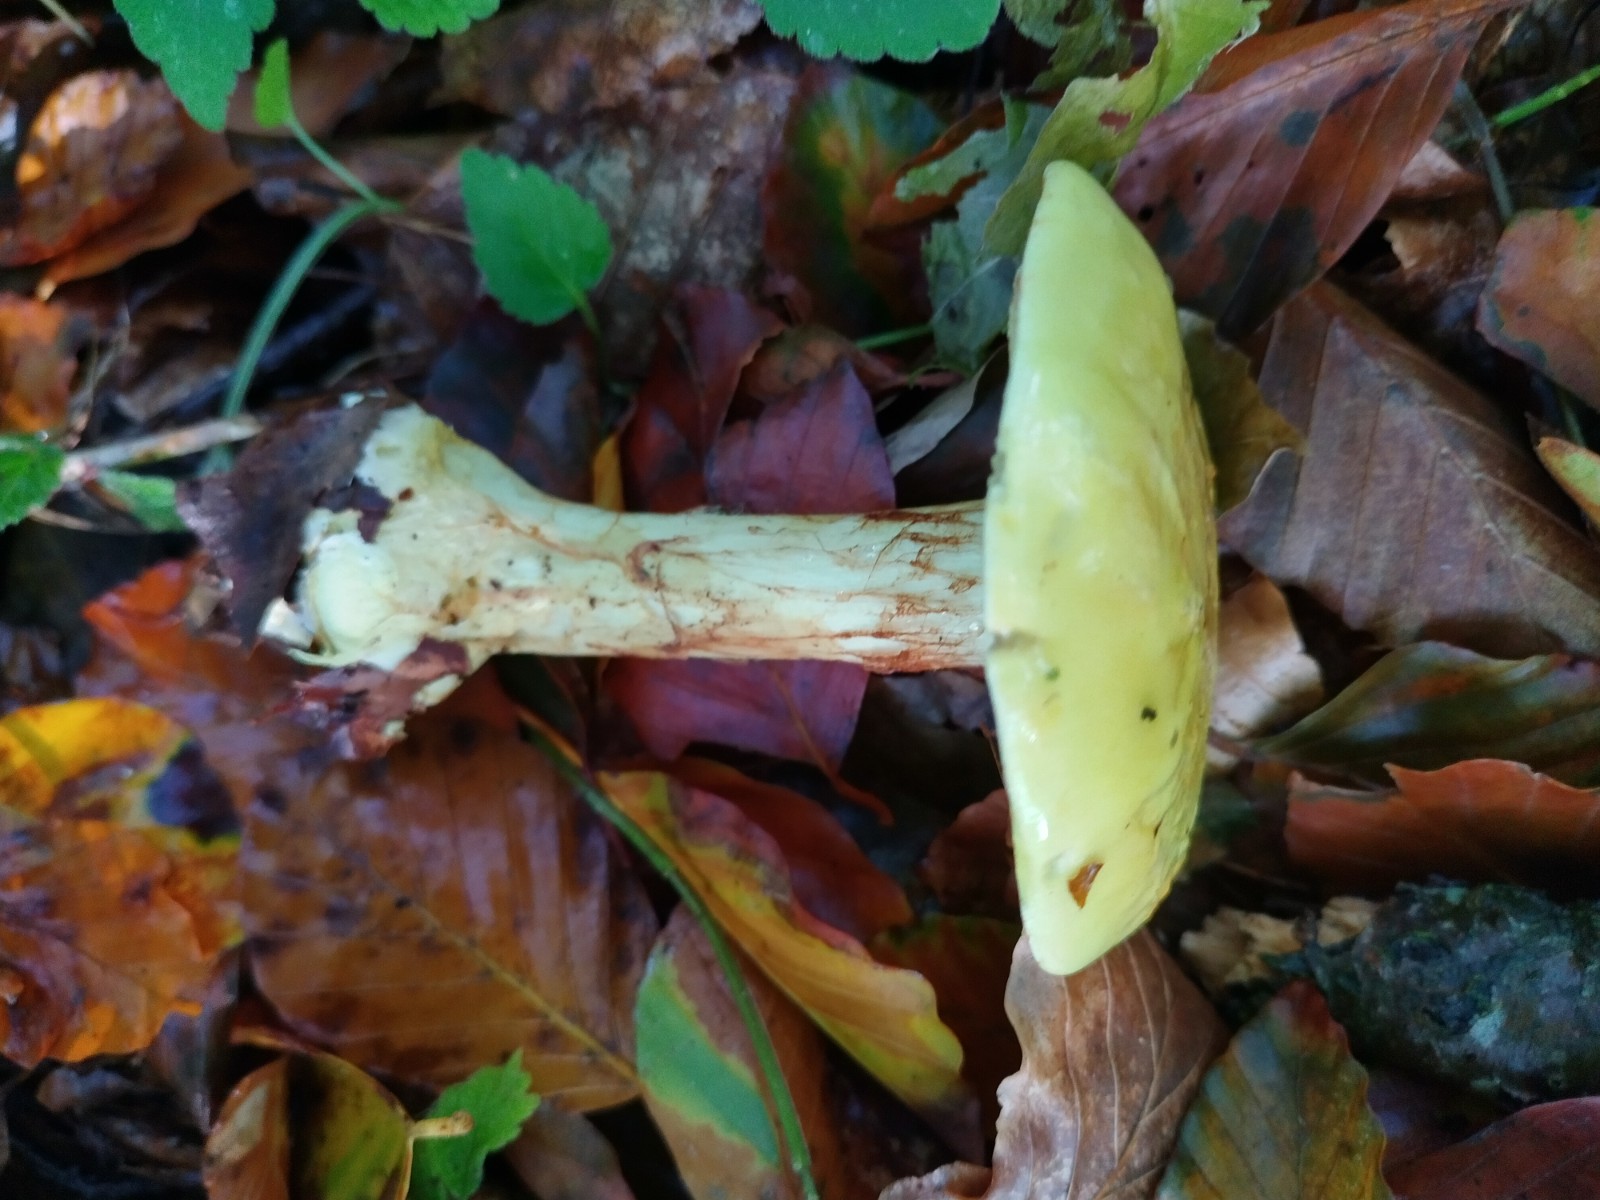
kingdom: Fungi
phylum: Basidiomycota
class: Agaricomycetes
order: Agaricales
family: Cortinariaceae
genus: Calonarius
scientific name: Calonarius elegantissimus
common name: orangegylden slørhat
